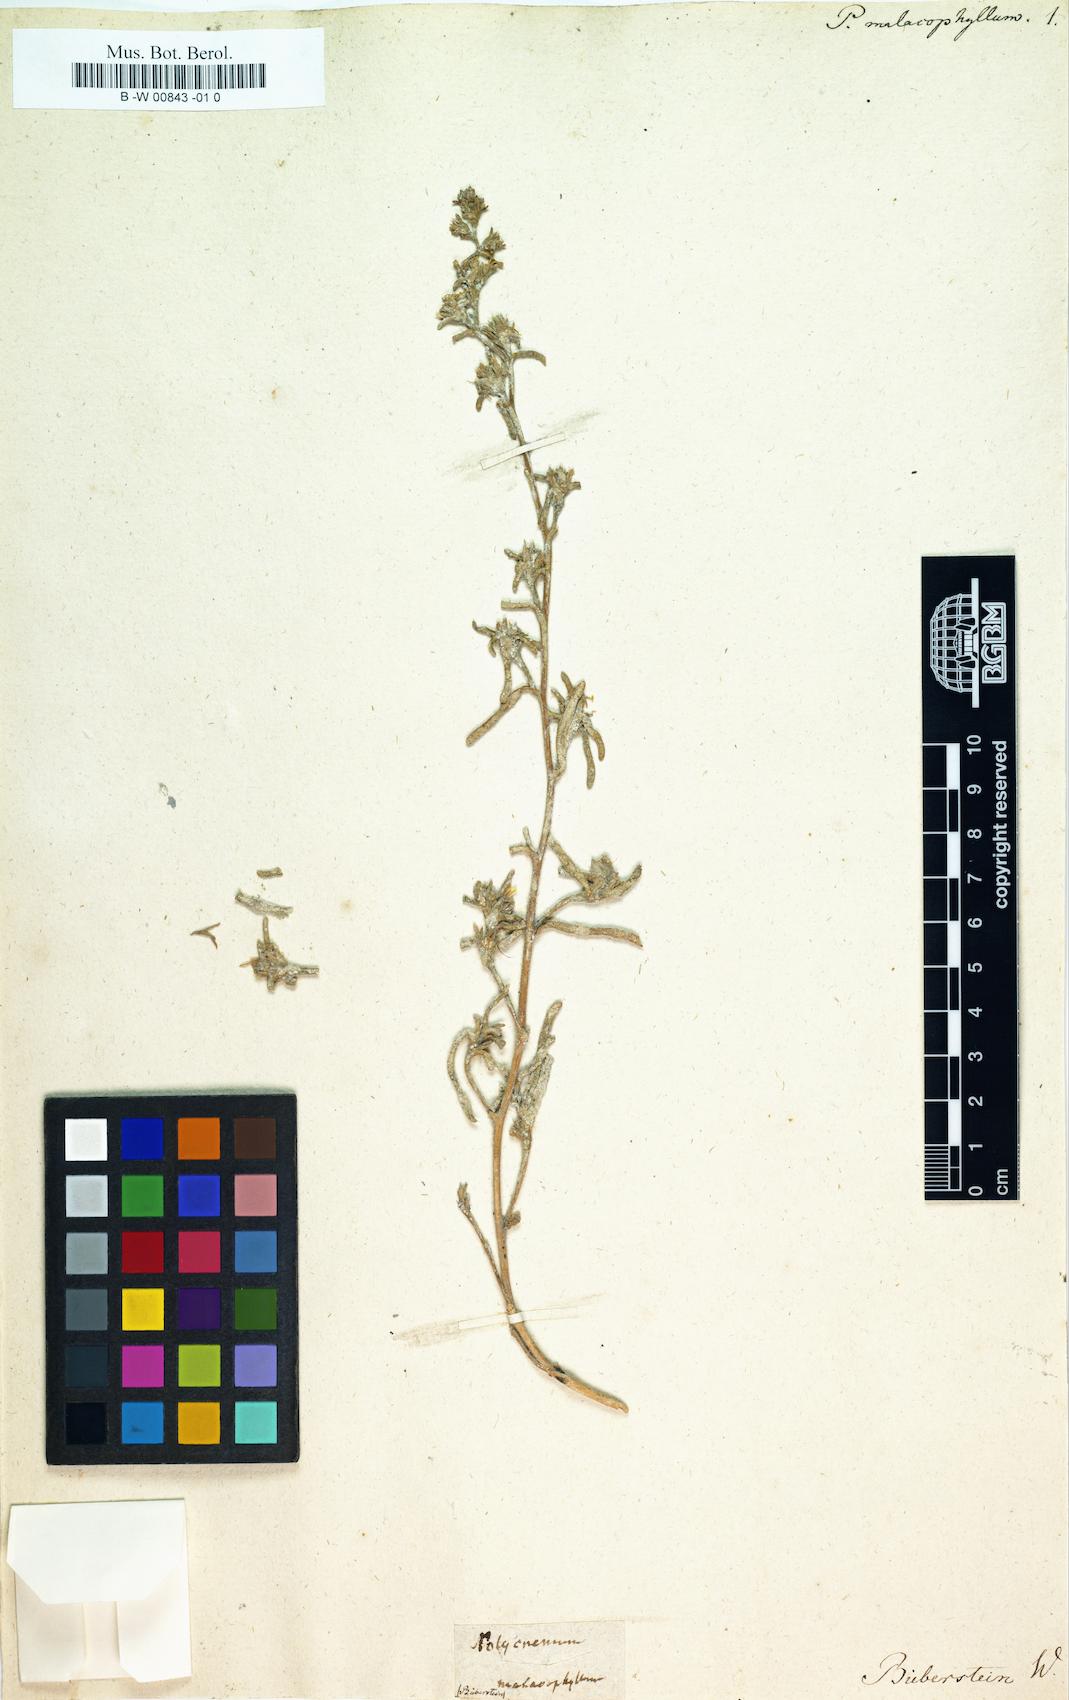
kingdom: Plantae
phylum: Tracheophyta
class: Magnoliopsida
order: Caryophyllales
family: Amaranthaceae
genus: Halimocnemis
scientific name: Halimocnemis pilosa
